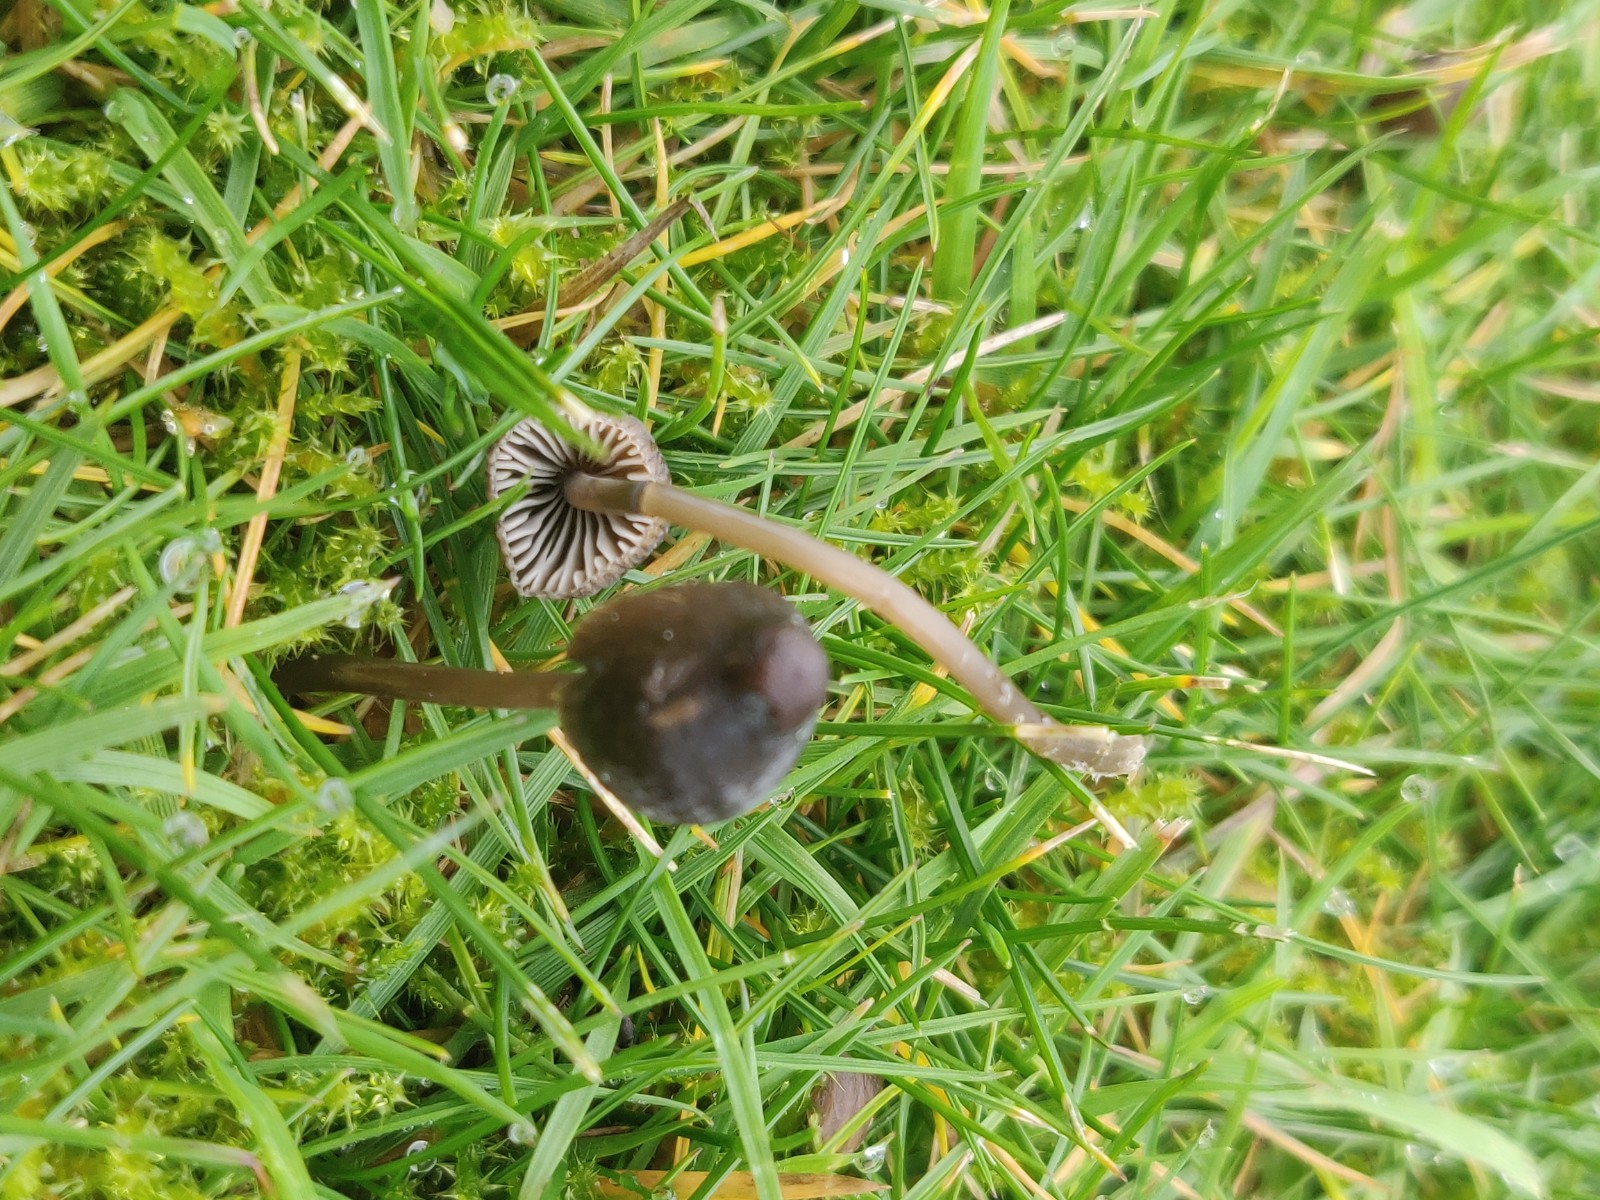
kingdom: Fungi
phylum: Basidiomycota
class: Agaricomycetes
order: Agaricales
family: Mycenaceae
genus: Mycena
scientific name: Mycena
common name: huesvamp
